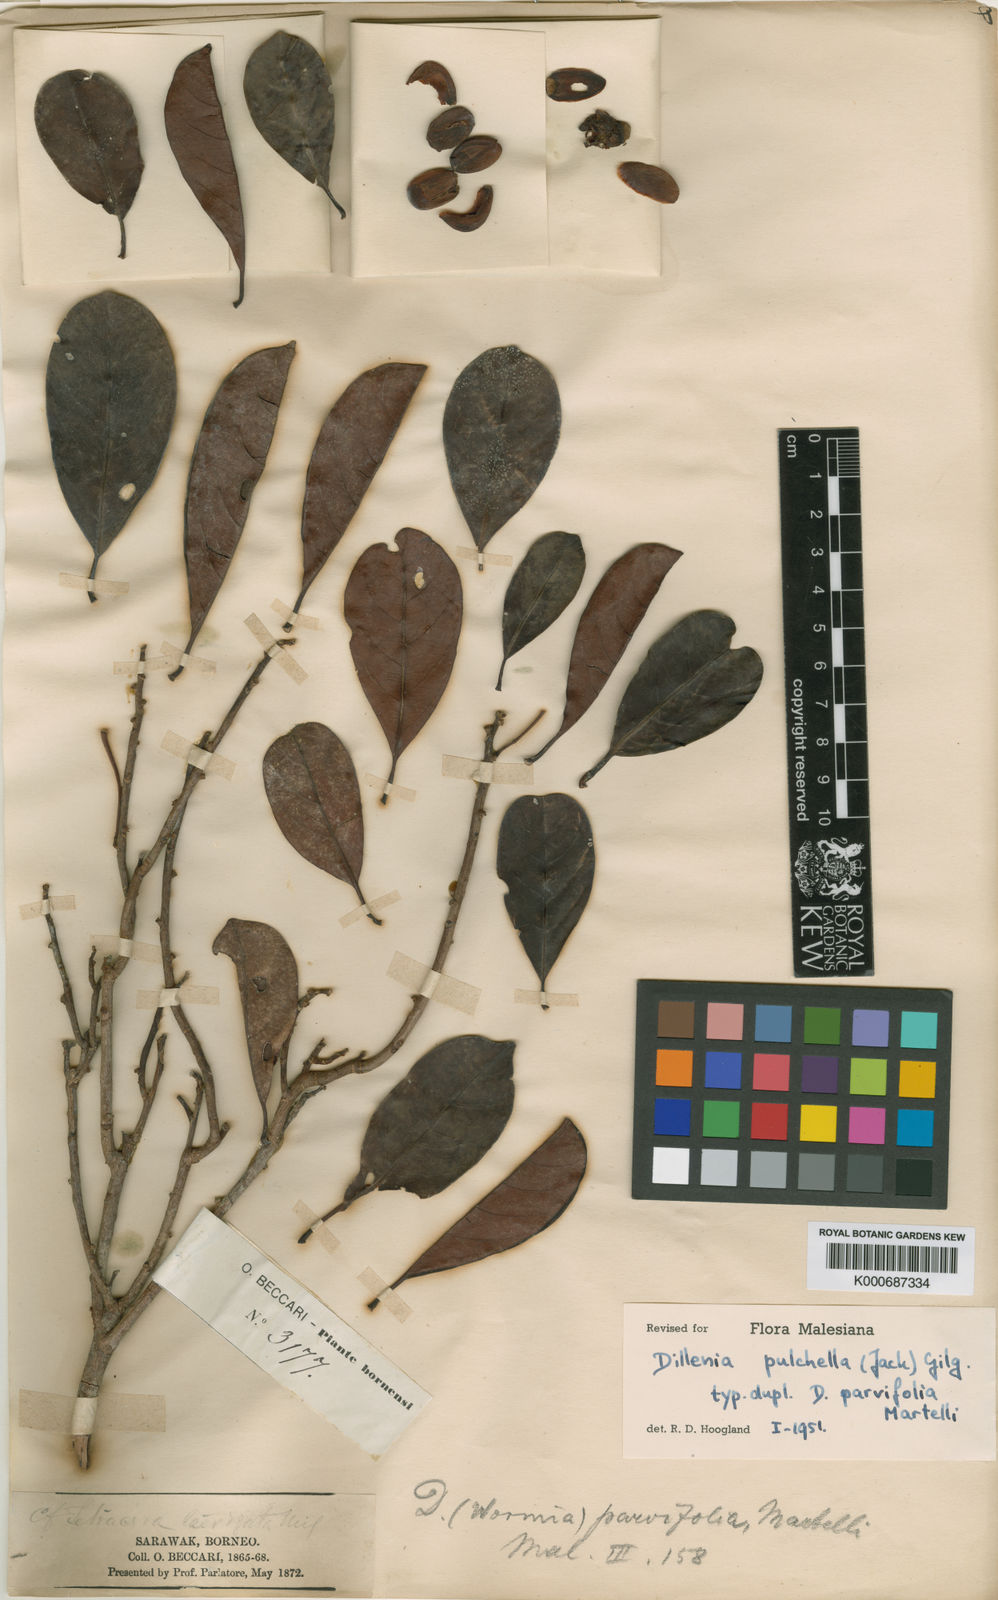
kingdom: Plantae
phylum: Tracheophyta
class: Magnoliopsida
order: Dilleniales
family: Dilleniaceae
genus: Dillenia
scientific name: Dillenia pulchella
